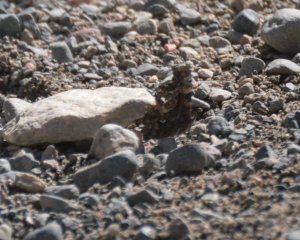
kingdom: Animalia
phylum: Arthropoda
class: Insecta
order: Lepidoptera
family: Nymphalidae
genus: Polygonia
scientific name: Polygonia faunus
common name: Green Comma
